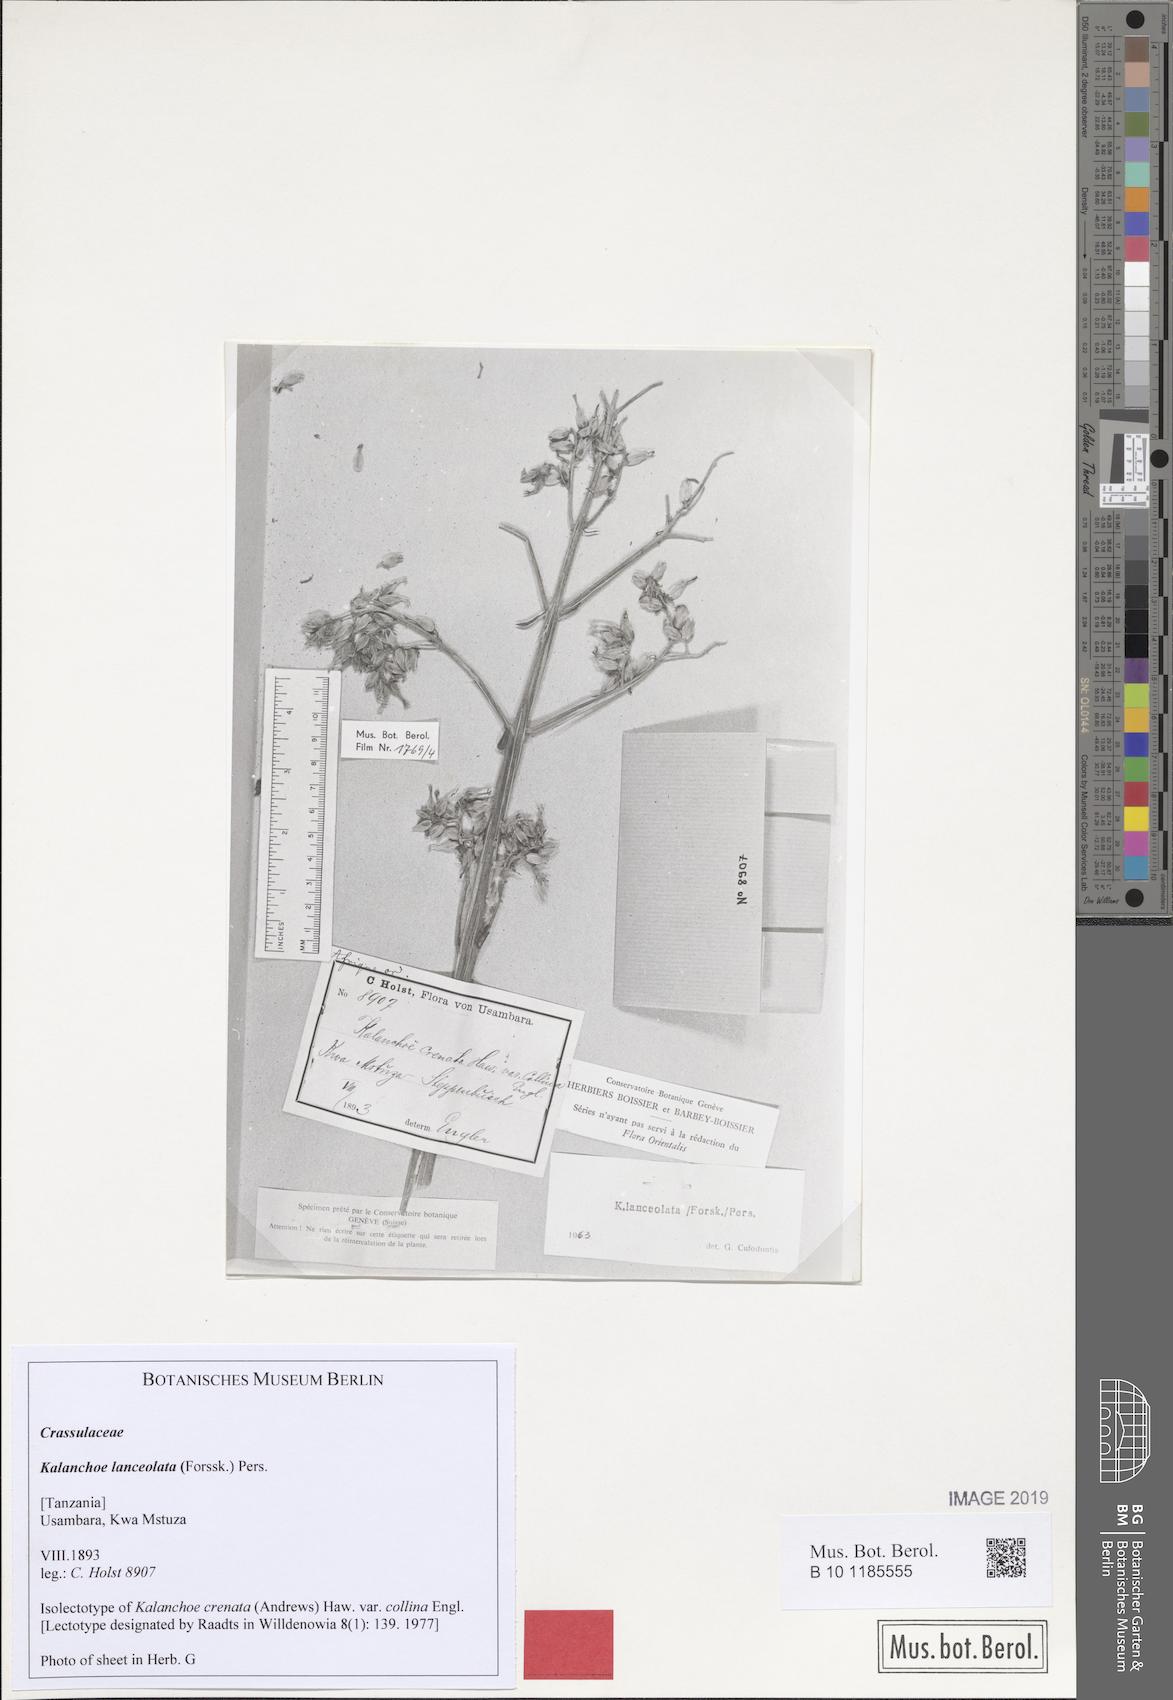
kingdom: Plantae
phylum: Tracheophyta
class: Magnoliopsida
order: Saxifragales
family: Crassulaceae
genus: Kalanchoe
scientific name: Kalanchoe lanceolata
